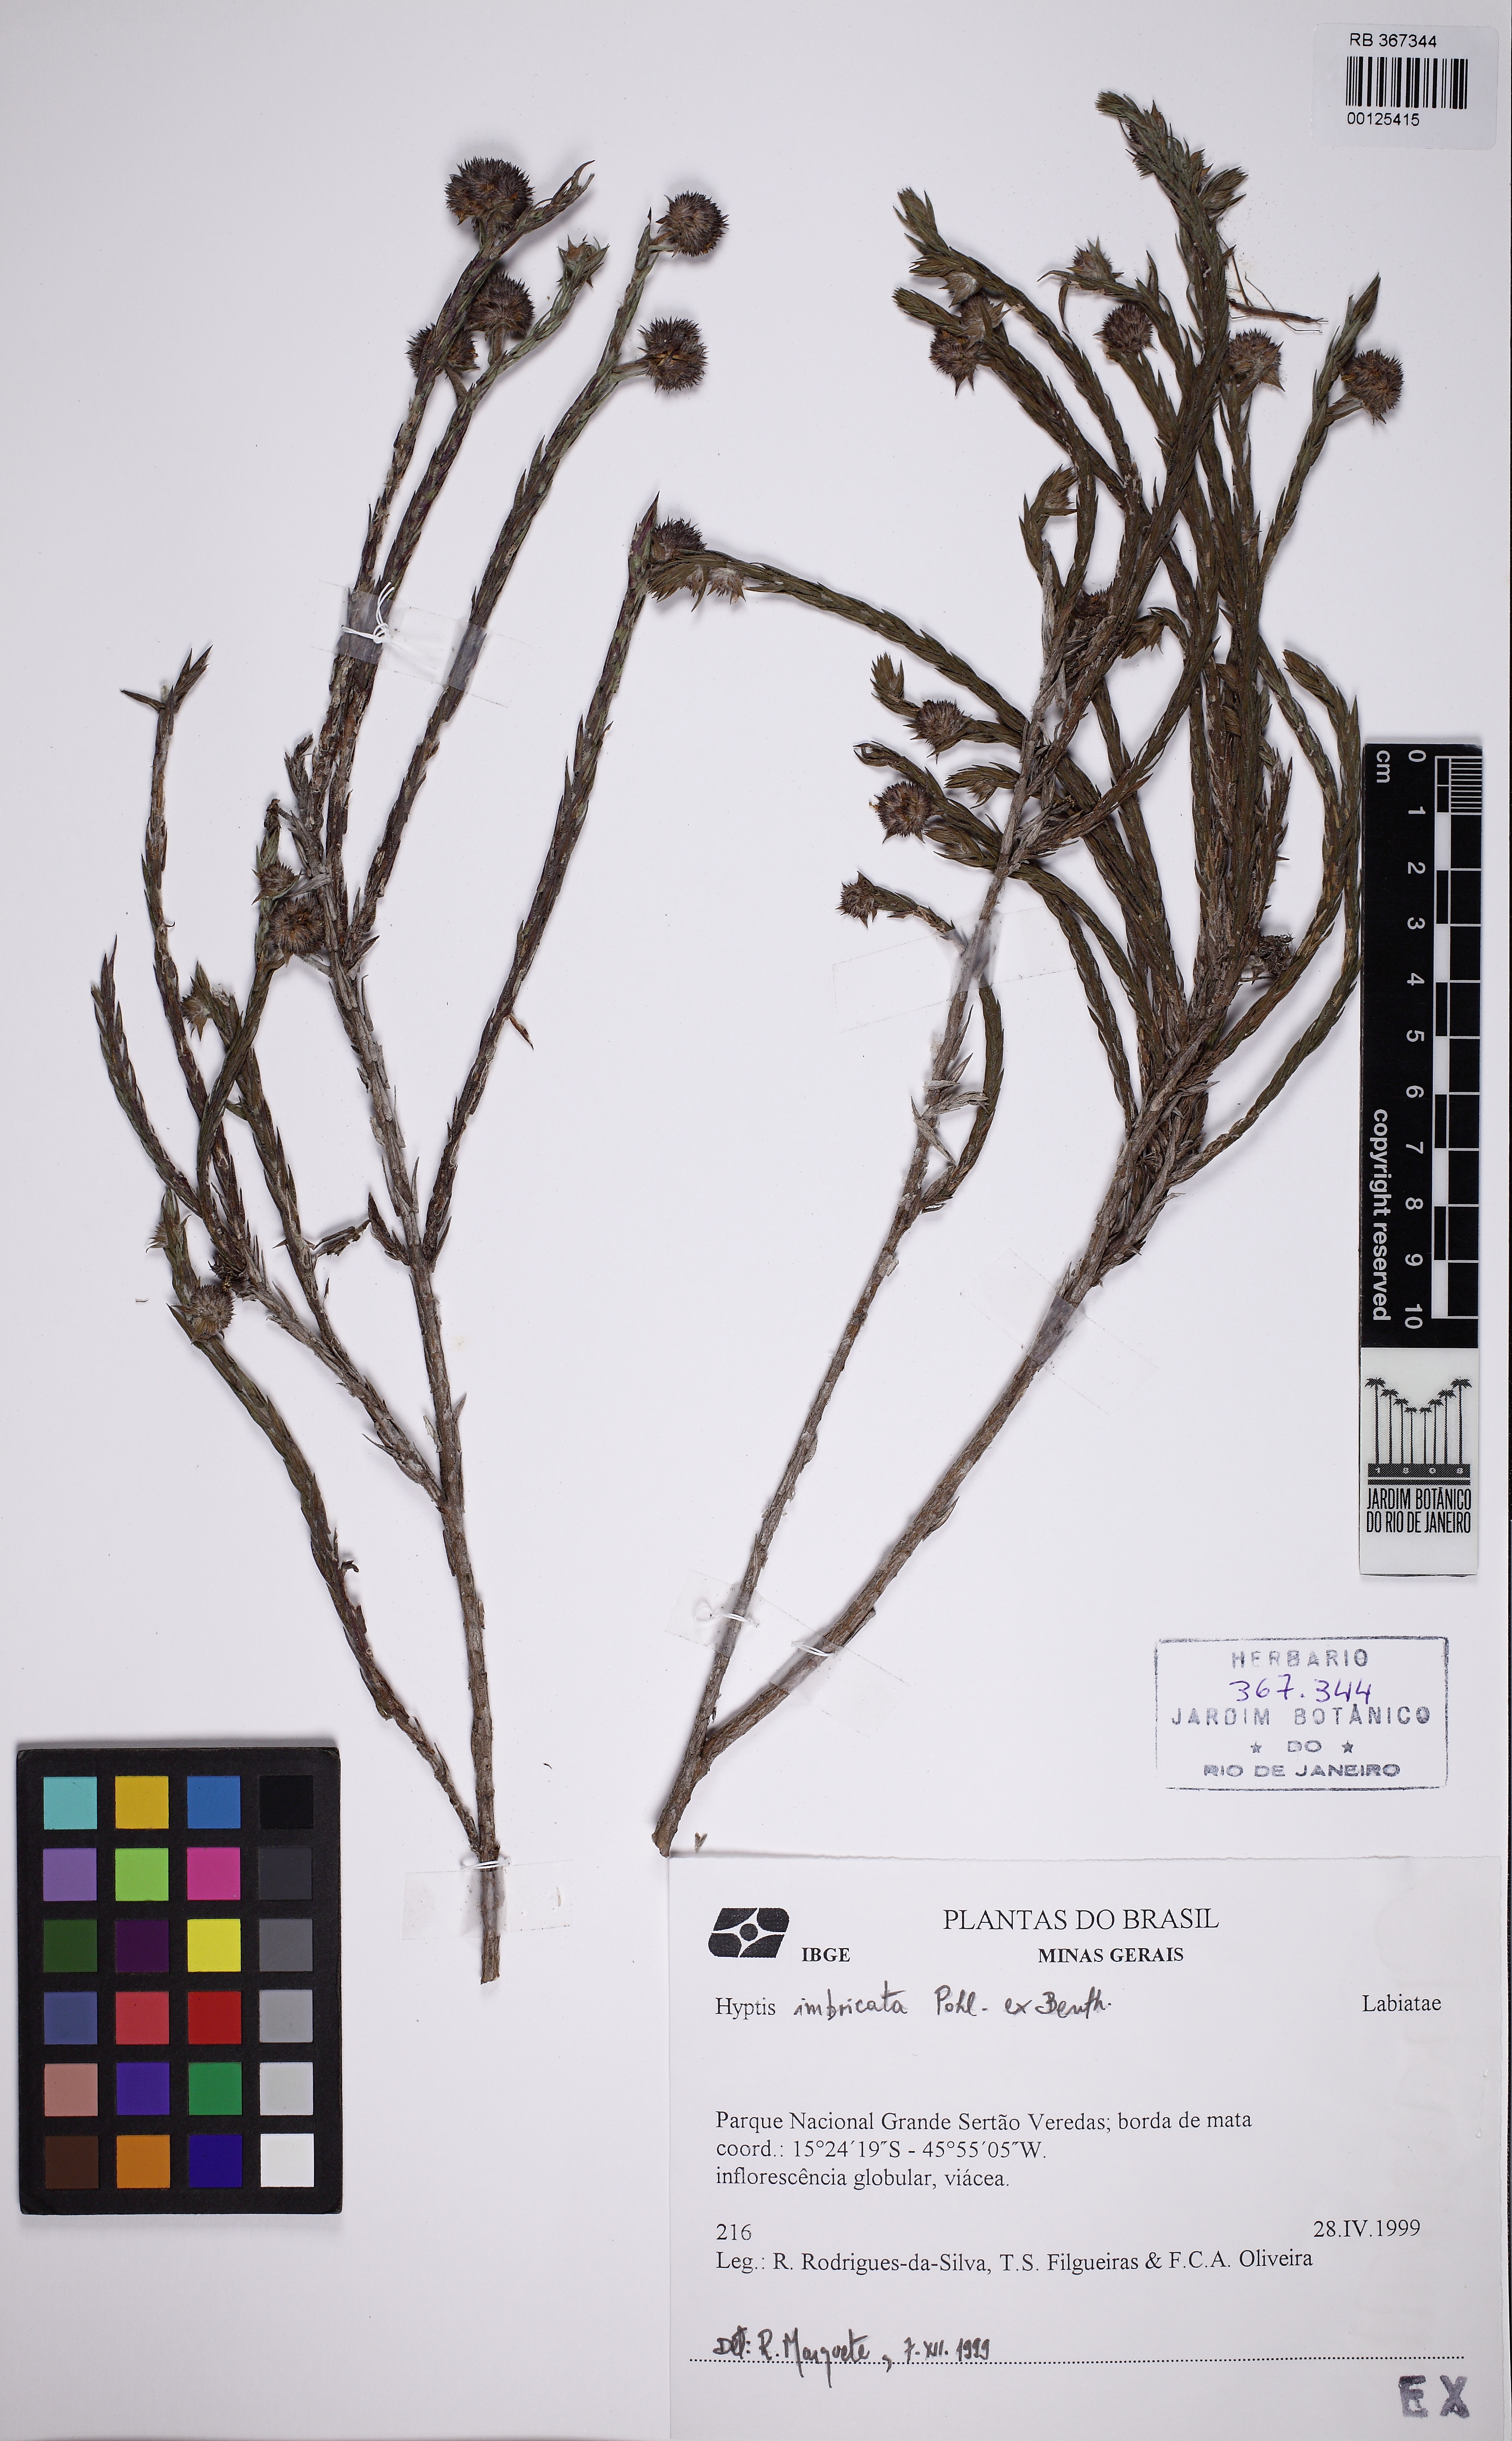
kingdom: Plantae
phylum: Tracheophyta
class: Magnoliopsida
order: Lamiales
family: Lamiaceae
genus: Hyptis
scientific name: Hyptis imbricata
